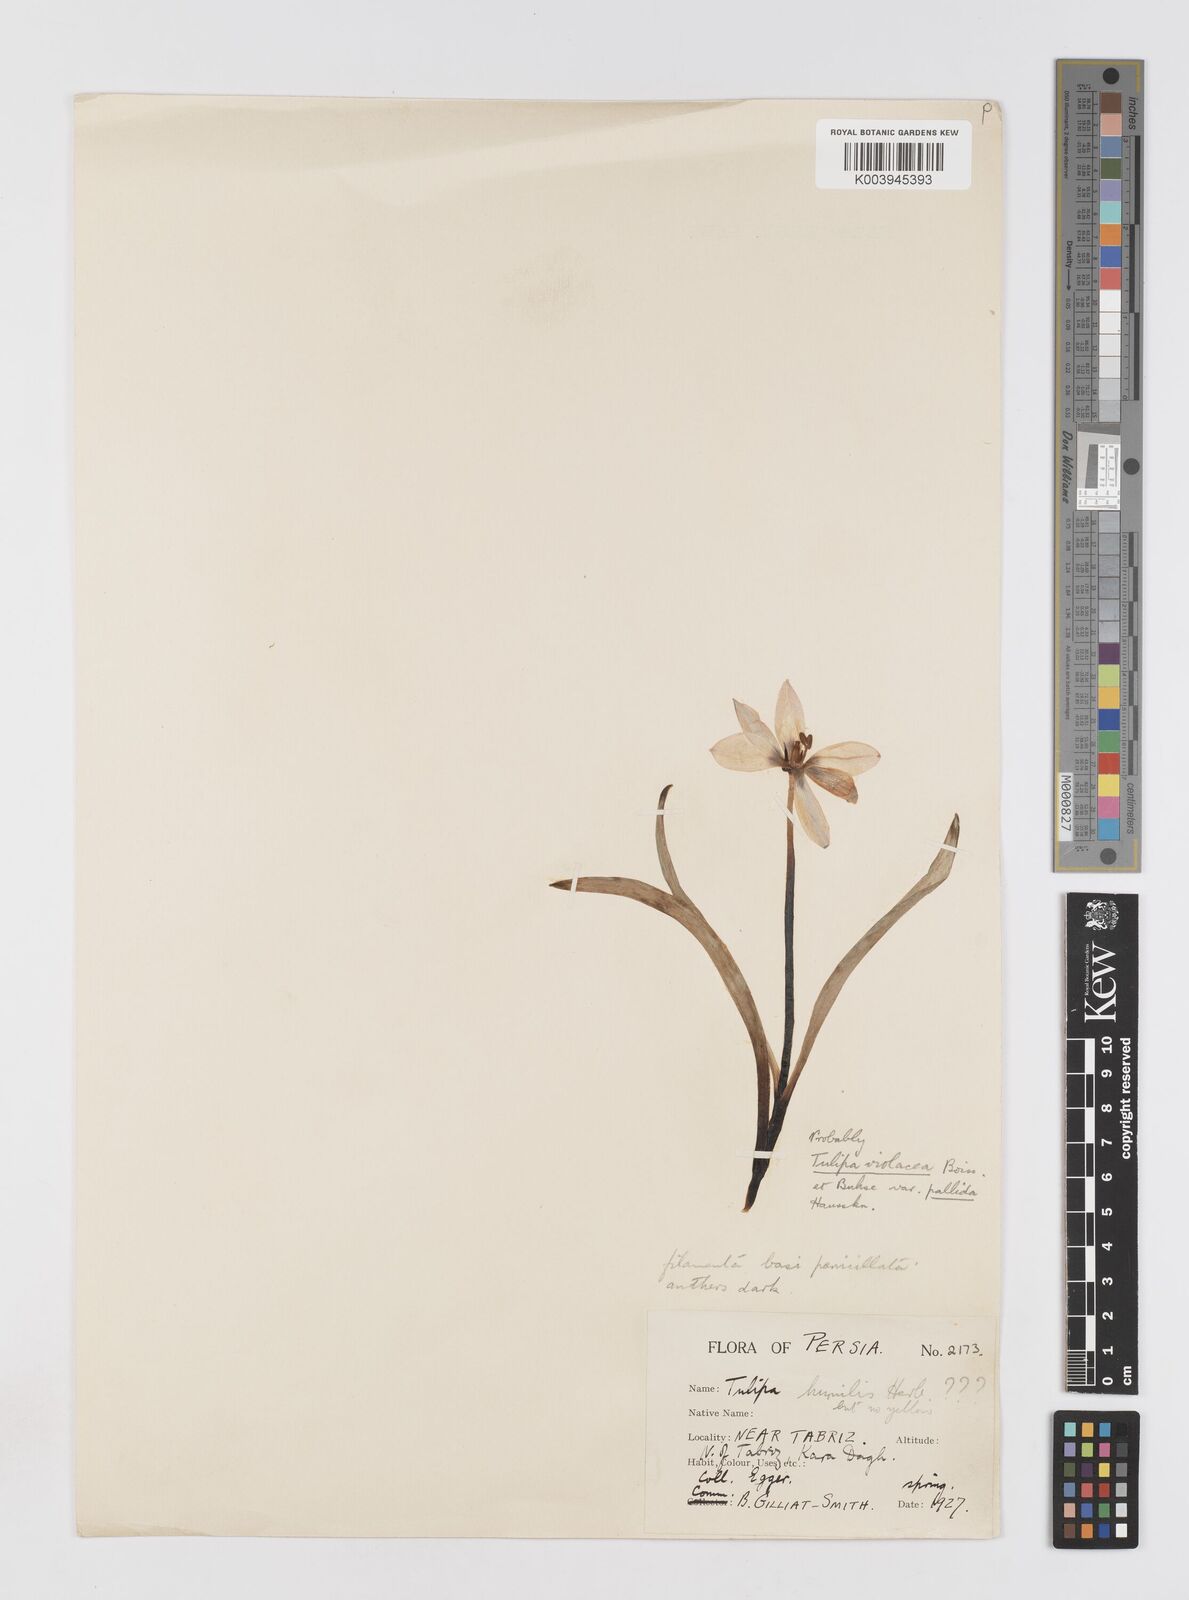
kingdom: Plantae
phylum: Tracheophyta
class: Liliopsida
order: Liliales
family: Liliaceae
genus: Tulipa
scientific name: Tulipa humilis
